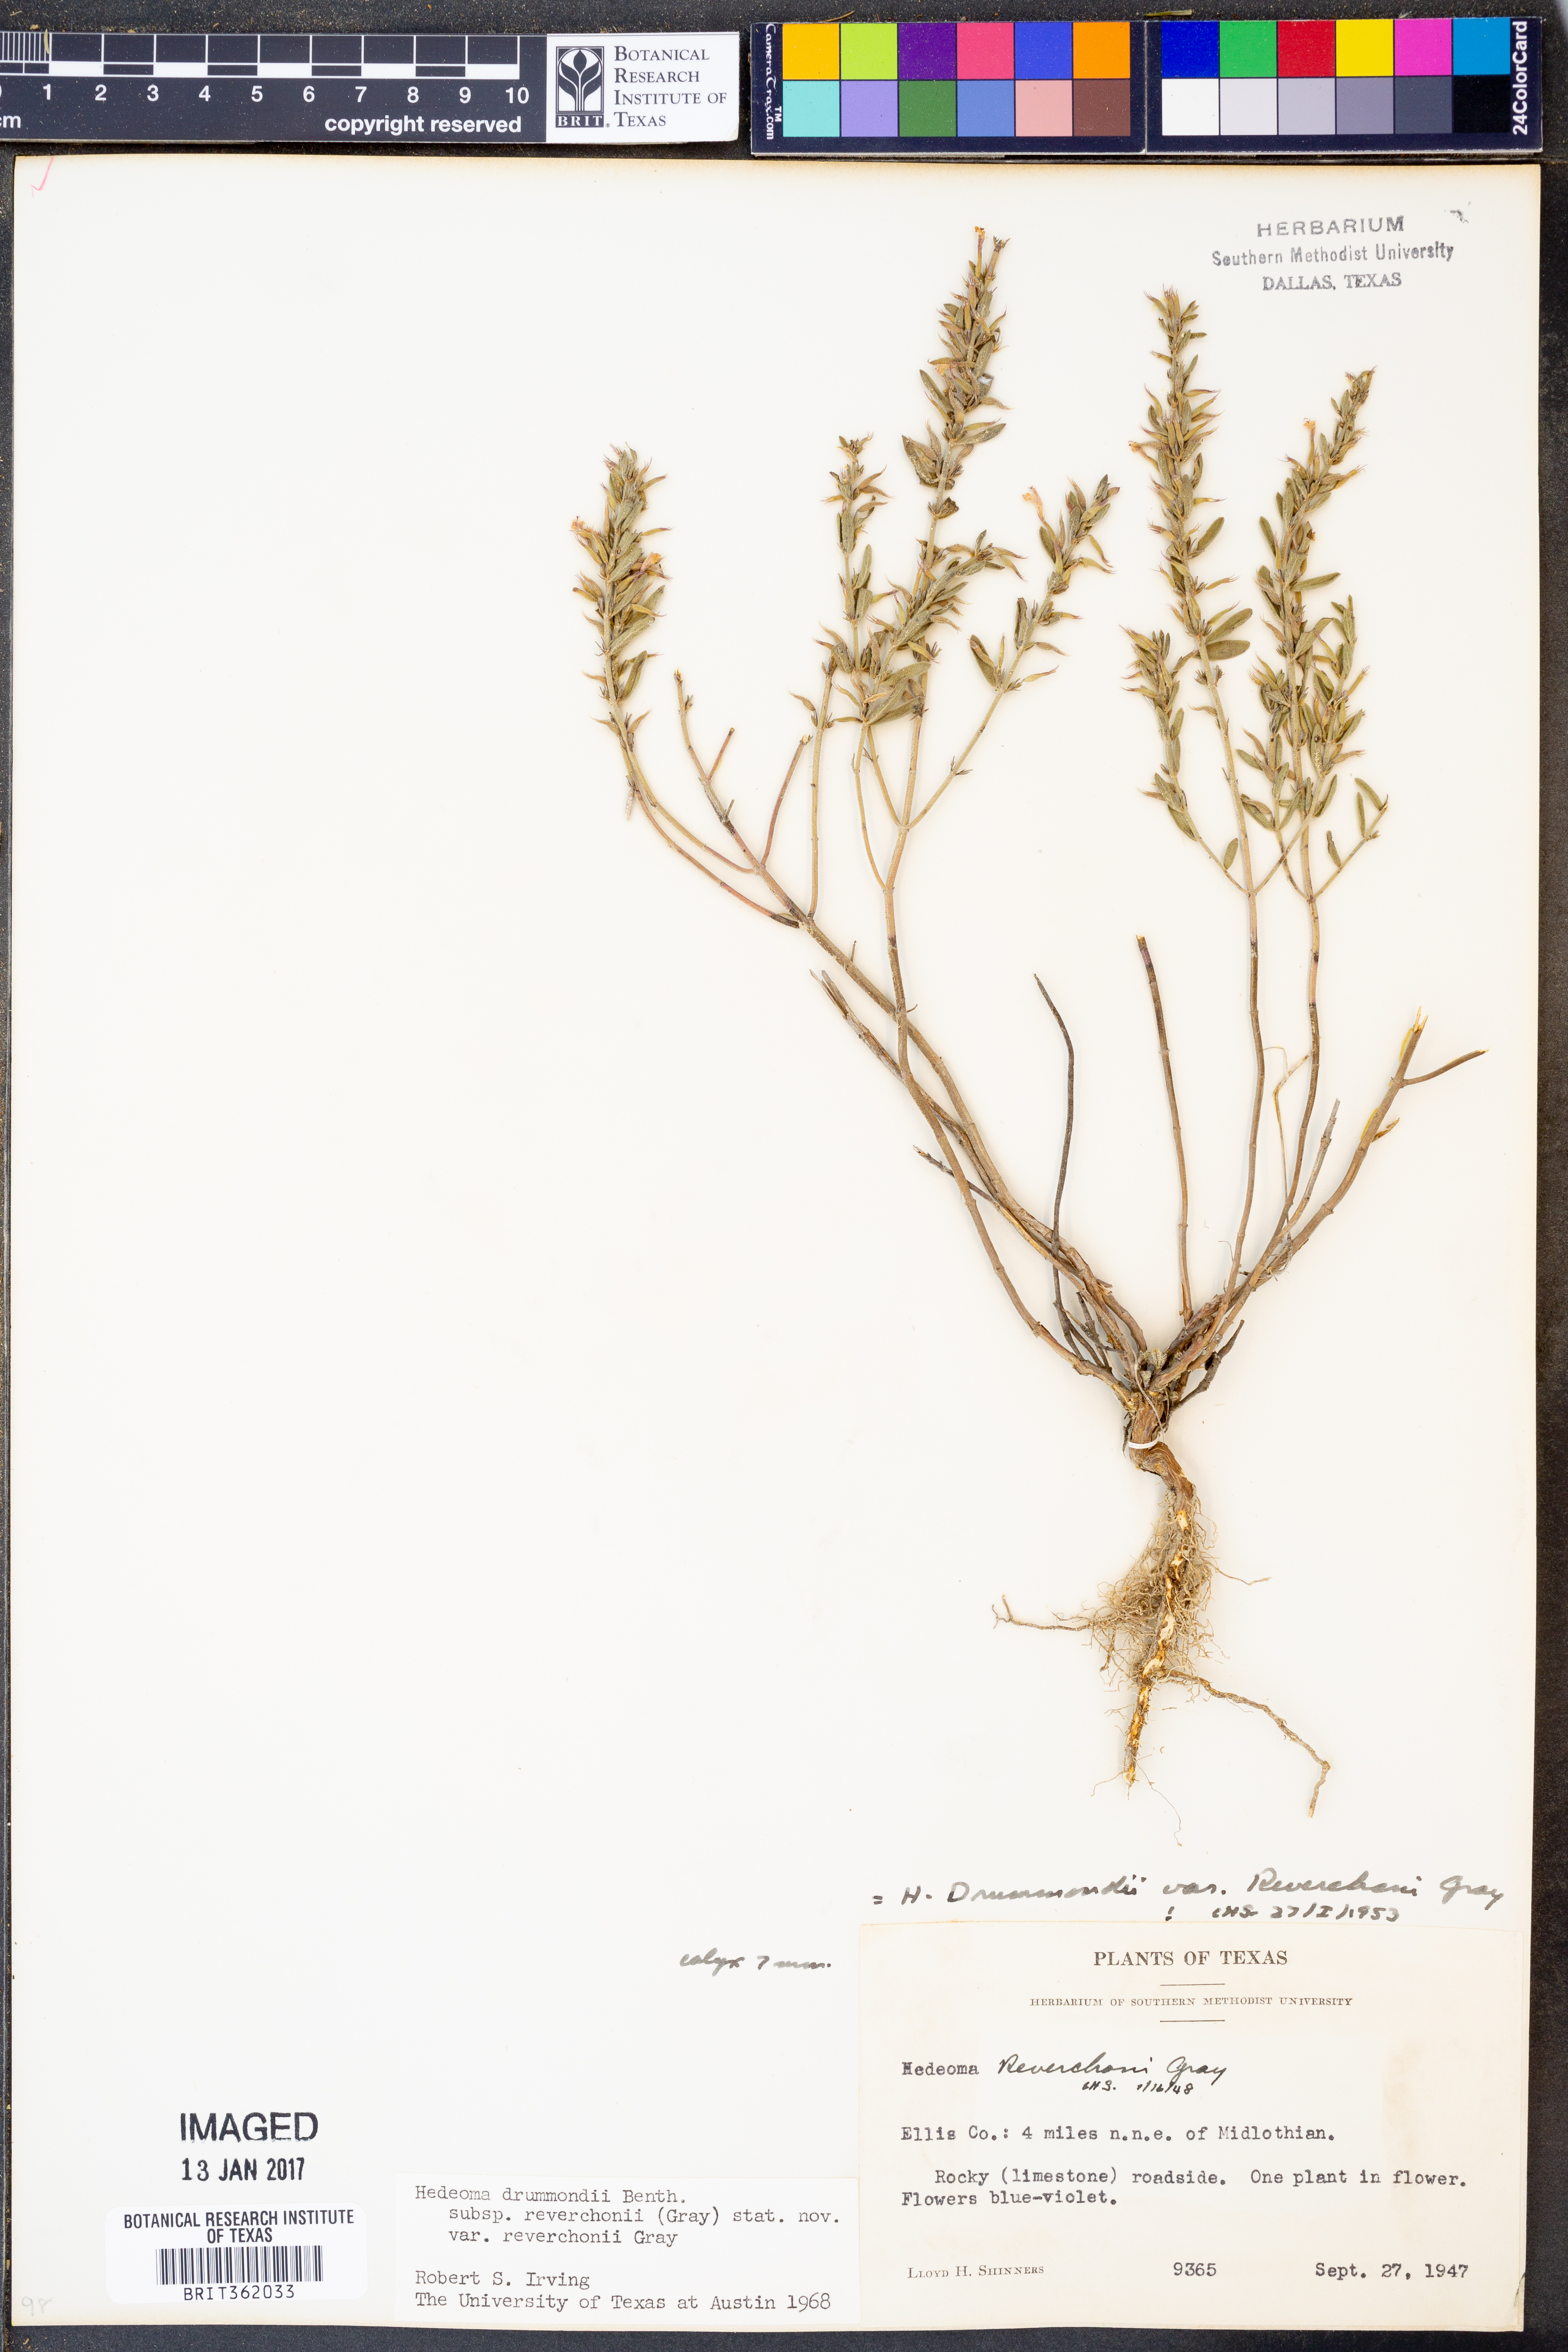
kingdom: Plantae
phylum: Tracheophyta
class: Magnoliopsida
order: Lamiales
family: Lamiaceae
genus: Hedeoma
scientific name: Hedeoma reverchonii
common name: Reverchon's false penny-royal
